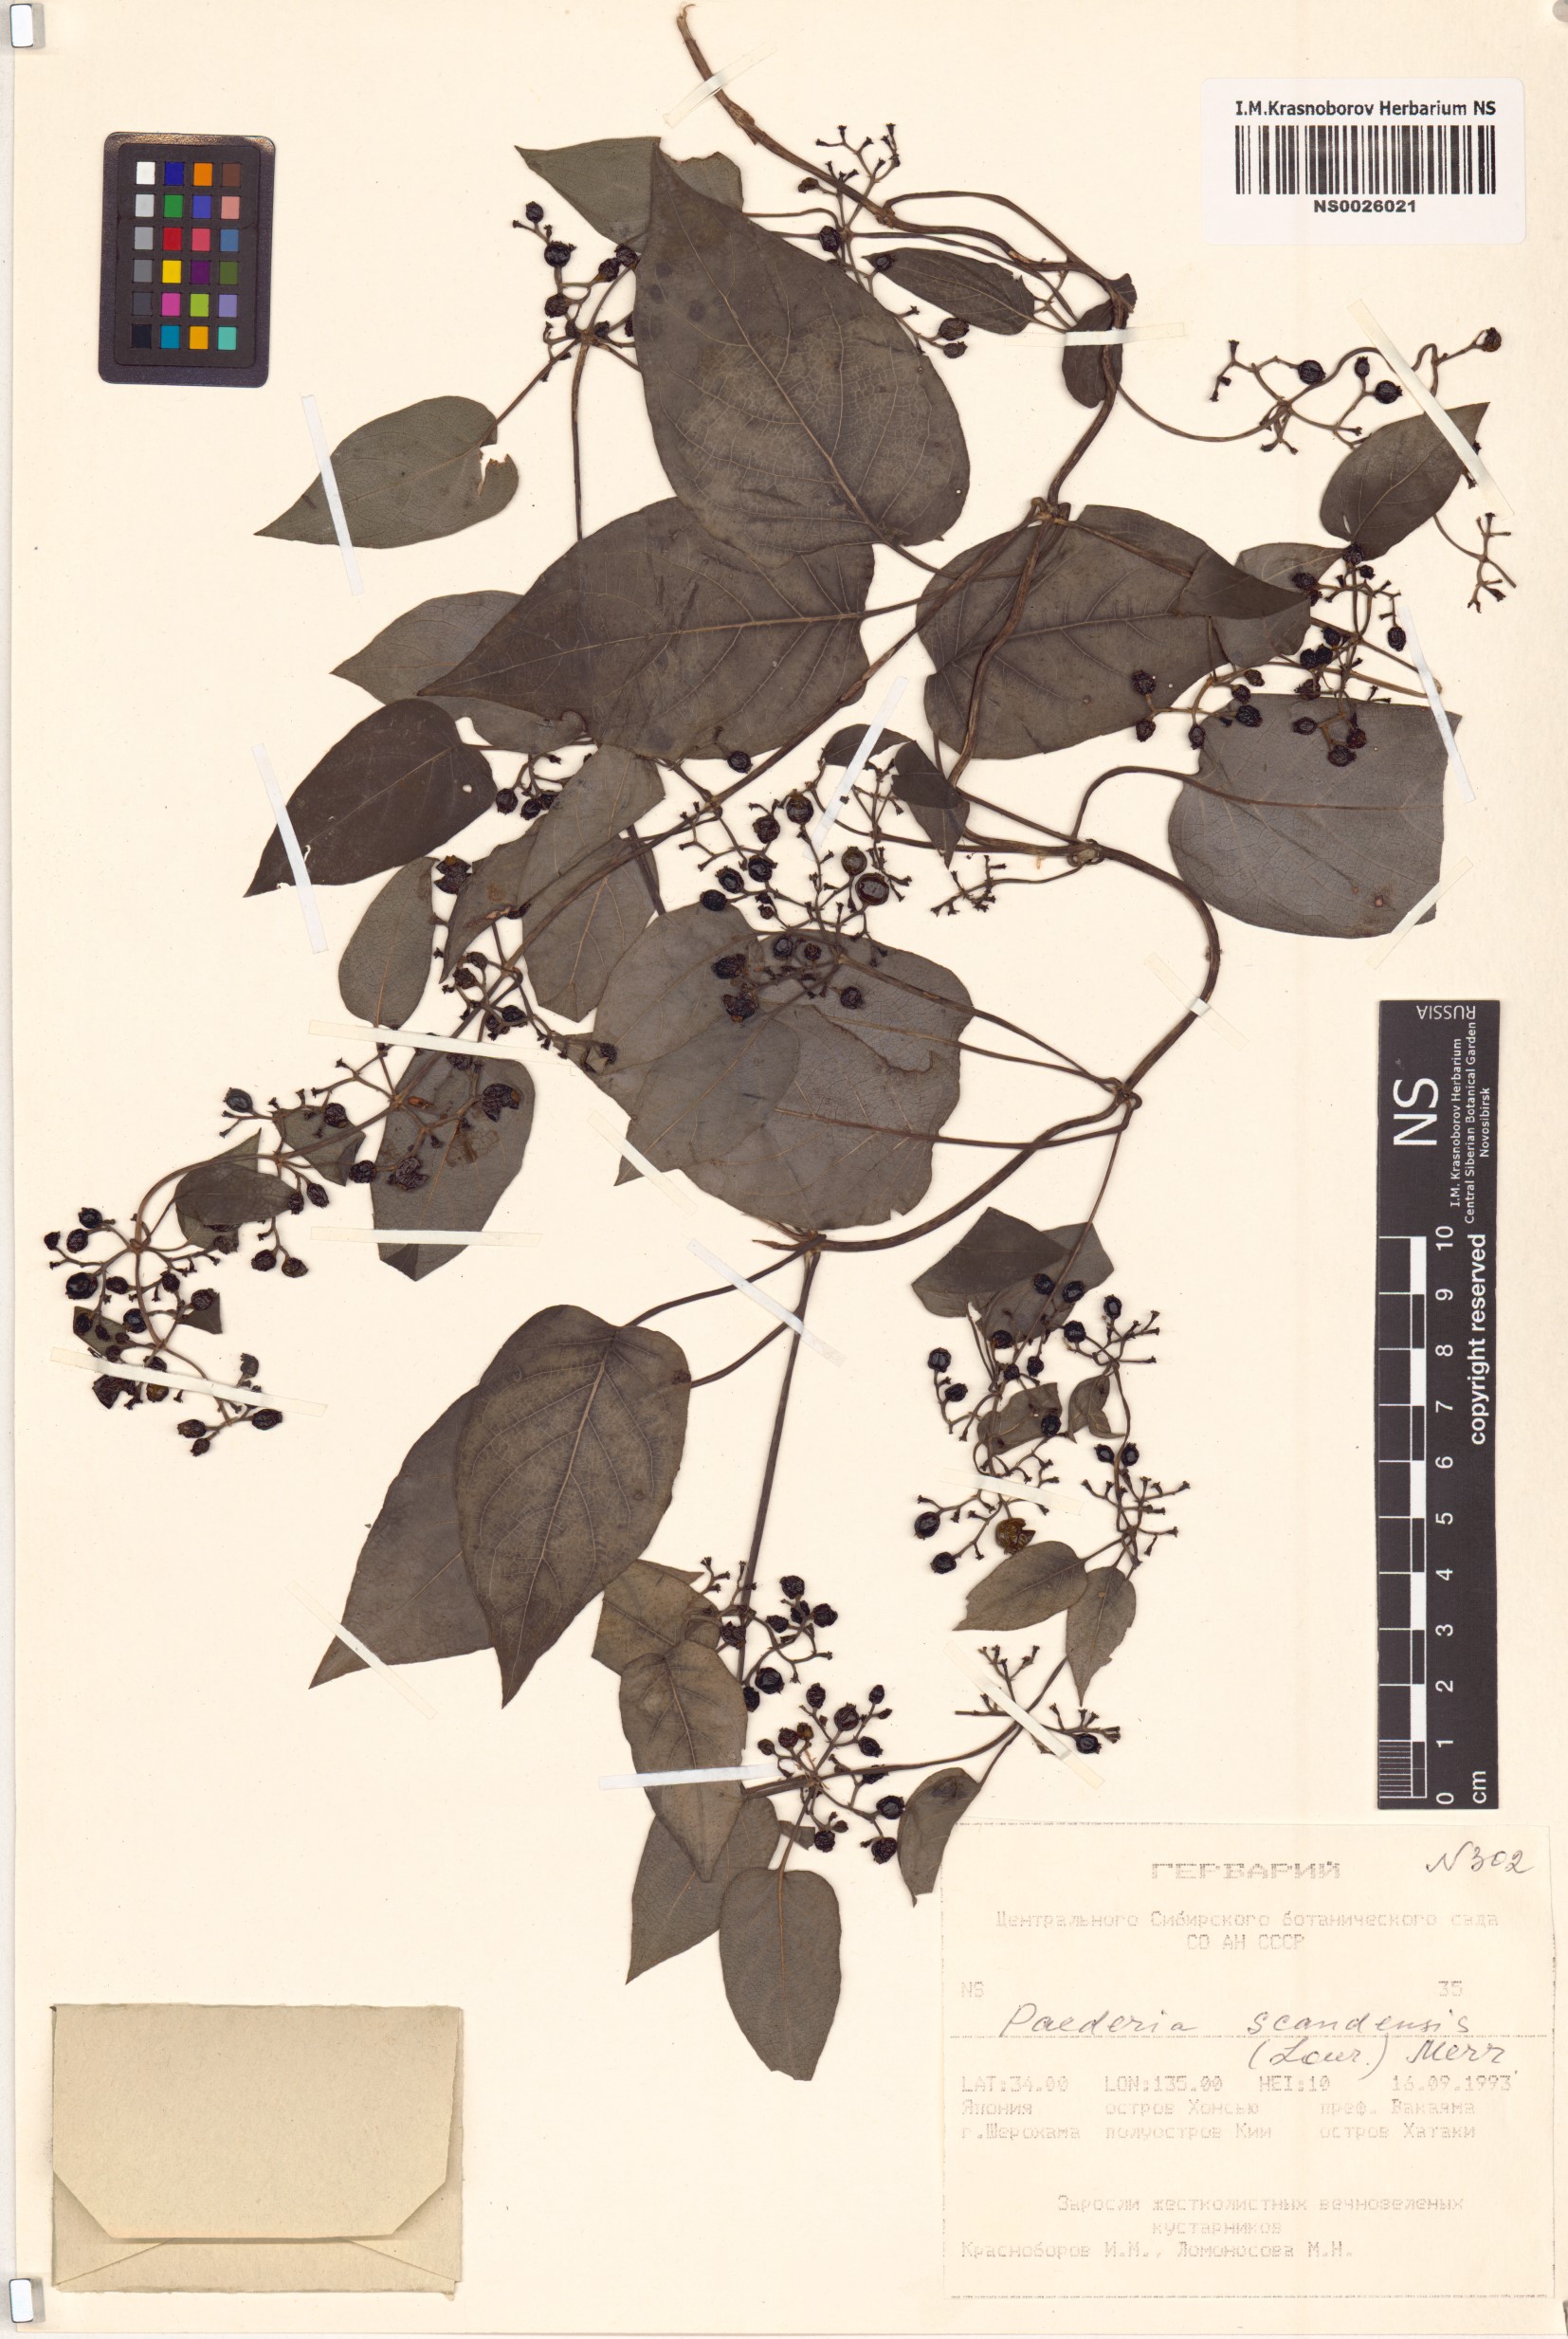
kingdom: Plantae
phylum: Tracheophyta
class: Magnoliopsida
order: Gentianales
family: Rubiaceae
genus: Paederia
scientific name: Paederia foetida
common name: Stinkvine
